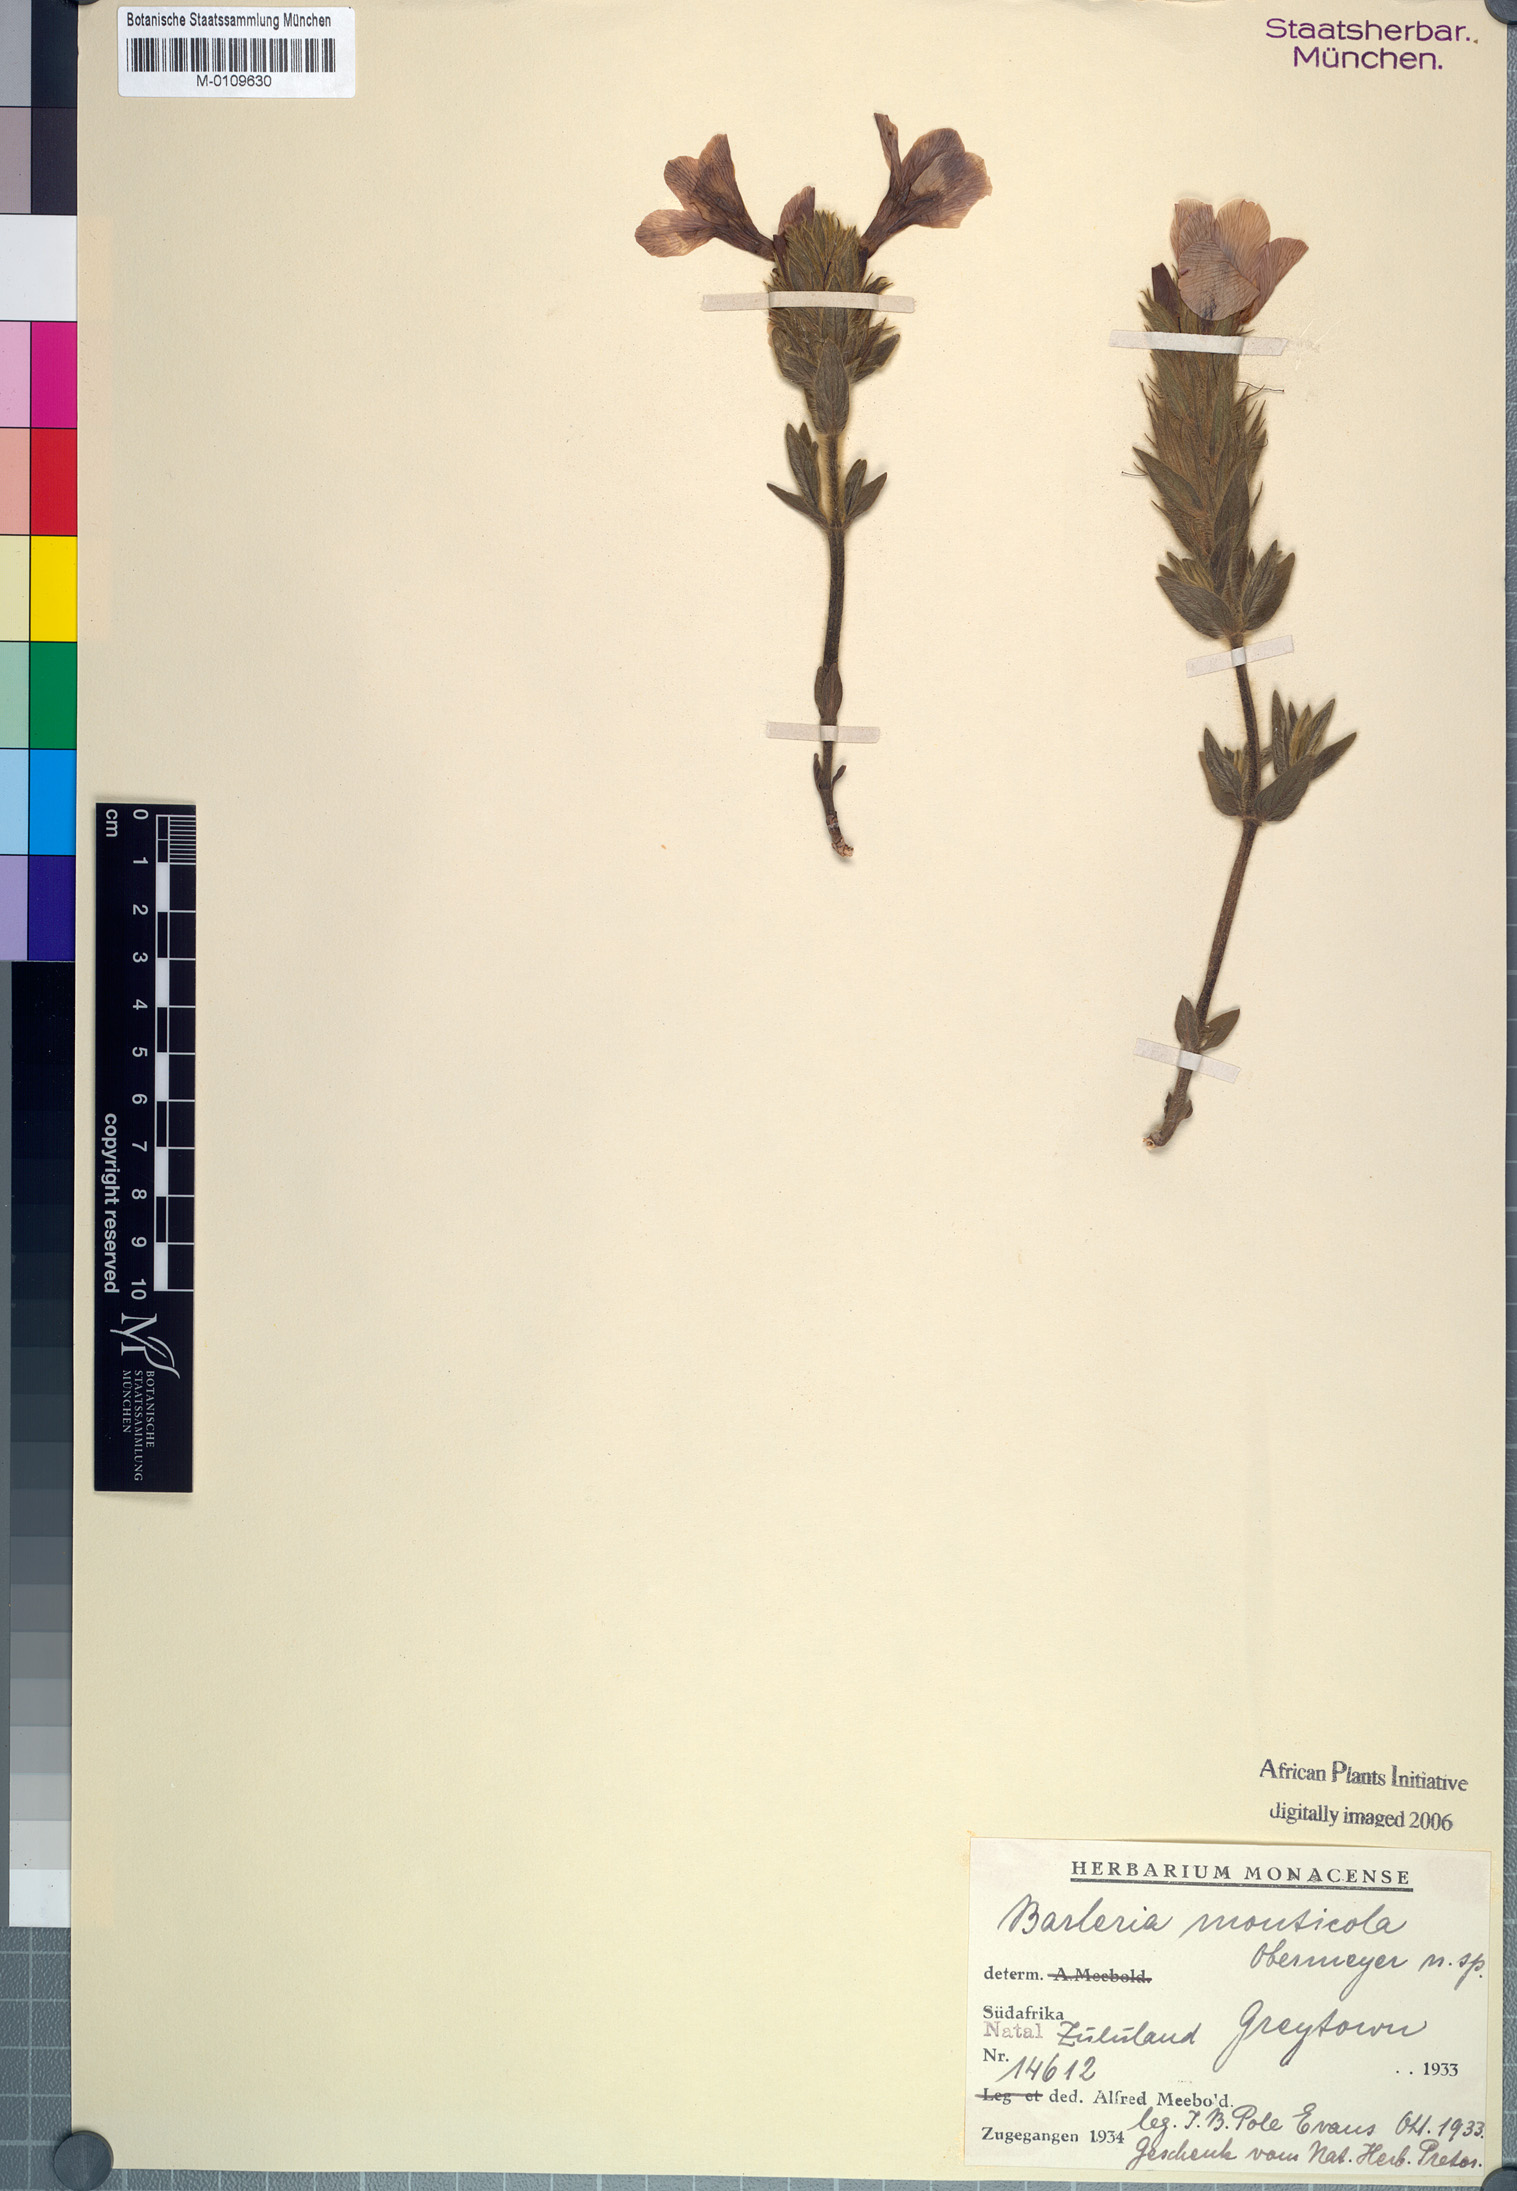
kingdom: Plantae
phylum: Tracheophyta
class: Magnoliopsida
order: Lamiales
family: Acanthaceae
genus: Barleria
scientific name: Barleria monticola
